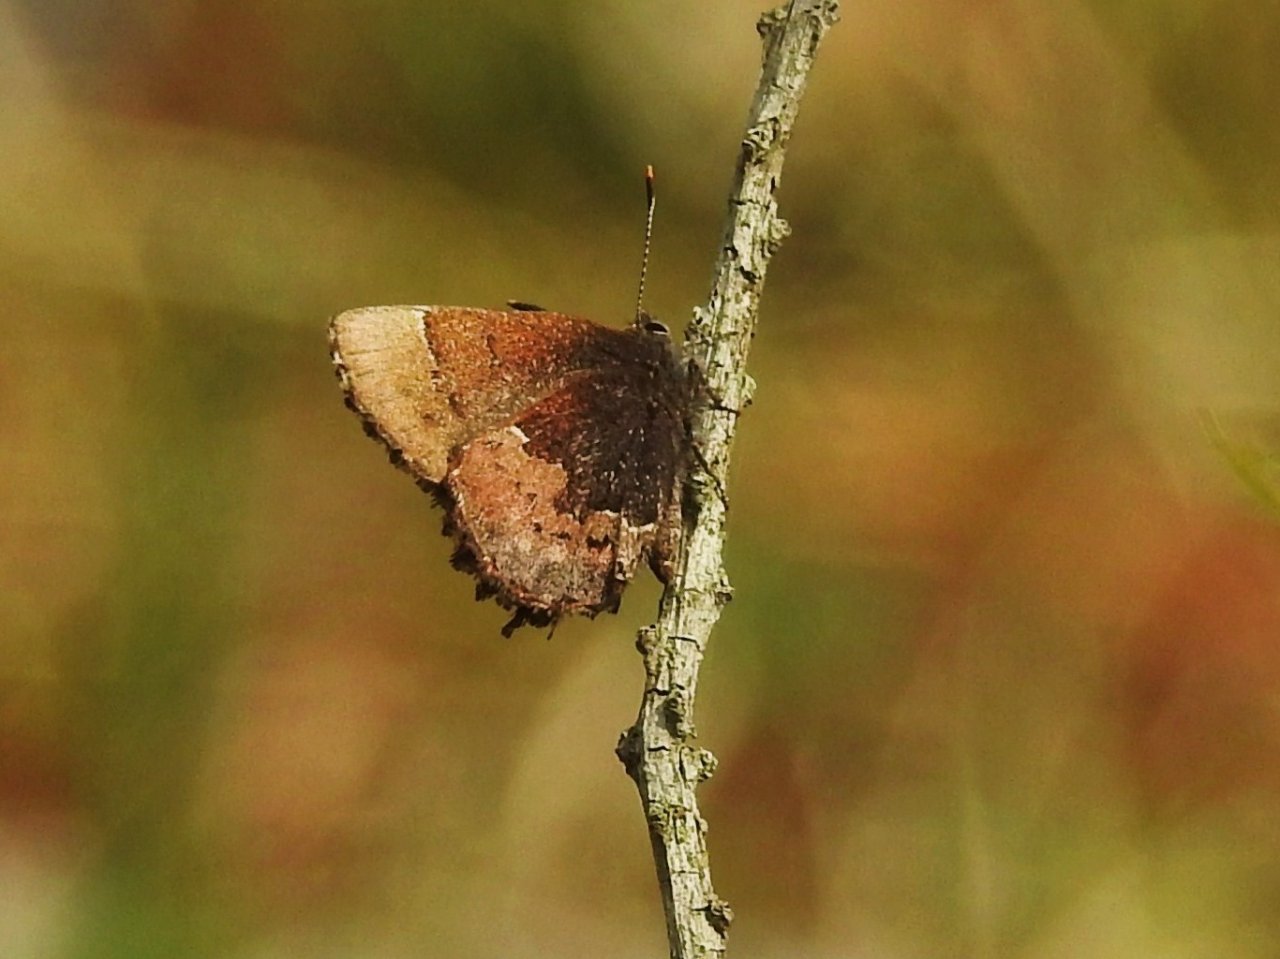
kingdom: Animalia
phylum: Arthropoda
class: Insecta
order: Lepidoptera
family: Lycaenidae
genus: Incisalia
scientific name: Incisalia henrici
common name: Henry's Elfin
